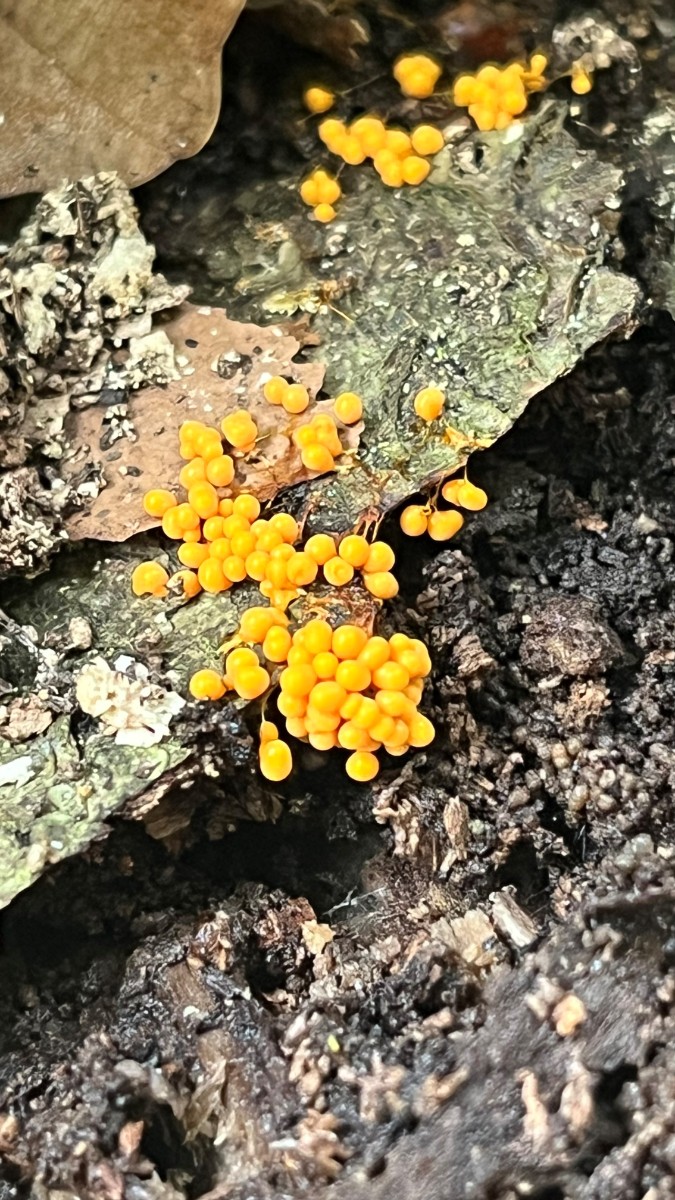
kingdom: Protozoa
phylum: Mycetozoa
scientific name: Mycetozoa
